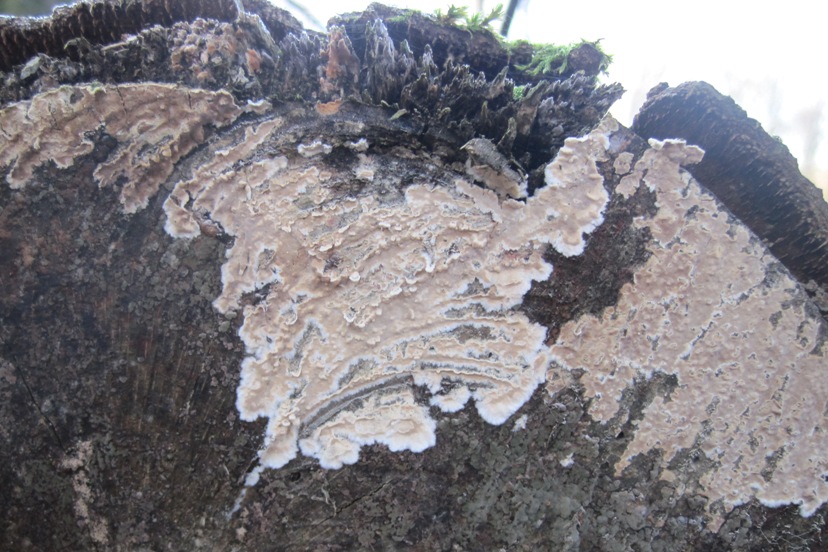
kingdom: Fungi
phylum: Basidiomycota
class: Agaricomycetes
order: Agaricales
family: Physalacriaceae
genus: Cylindrobasidium
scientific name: Cylindrobasidium evolvens
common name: sprækkehinde
